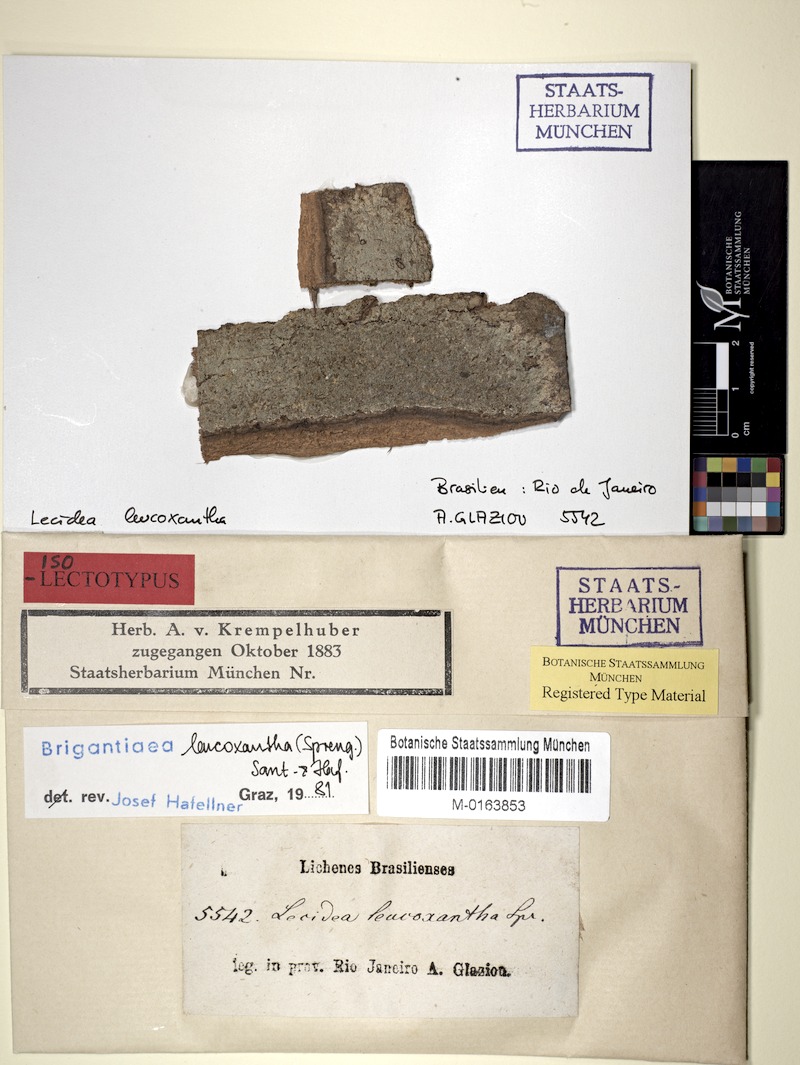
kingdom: Fungi
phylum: Ascomycota
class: Lecanoromycetes
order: Teloschistales
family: Brigantiaeaceae
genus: Brigantiaea
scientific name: Brigantiaea leucoxantha
